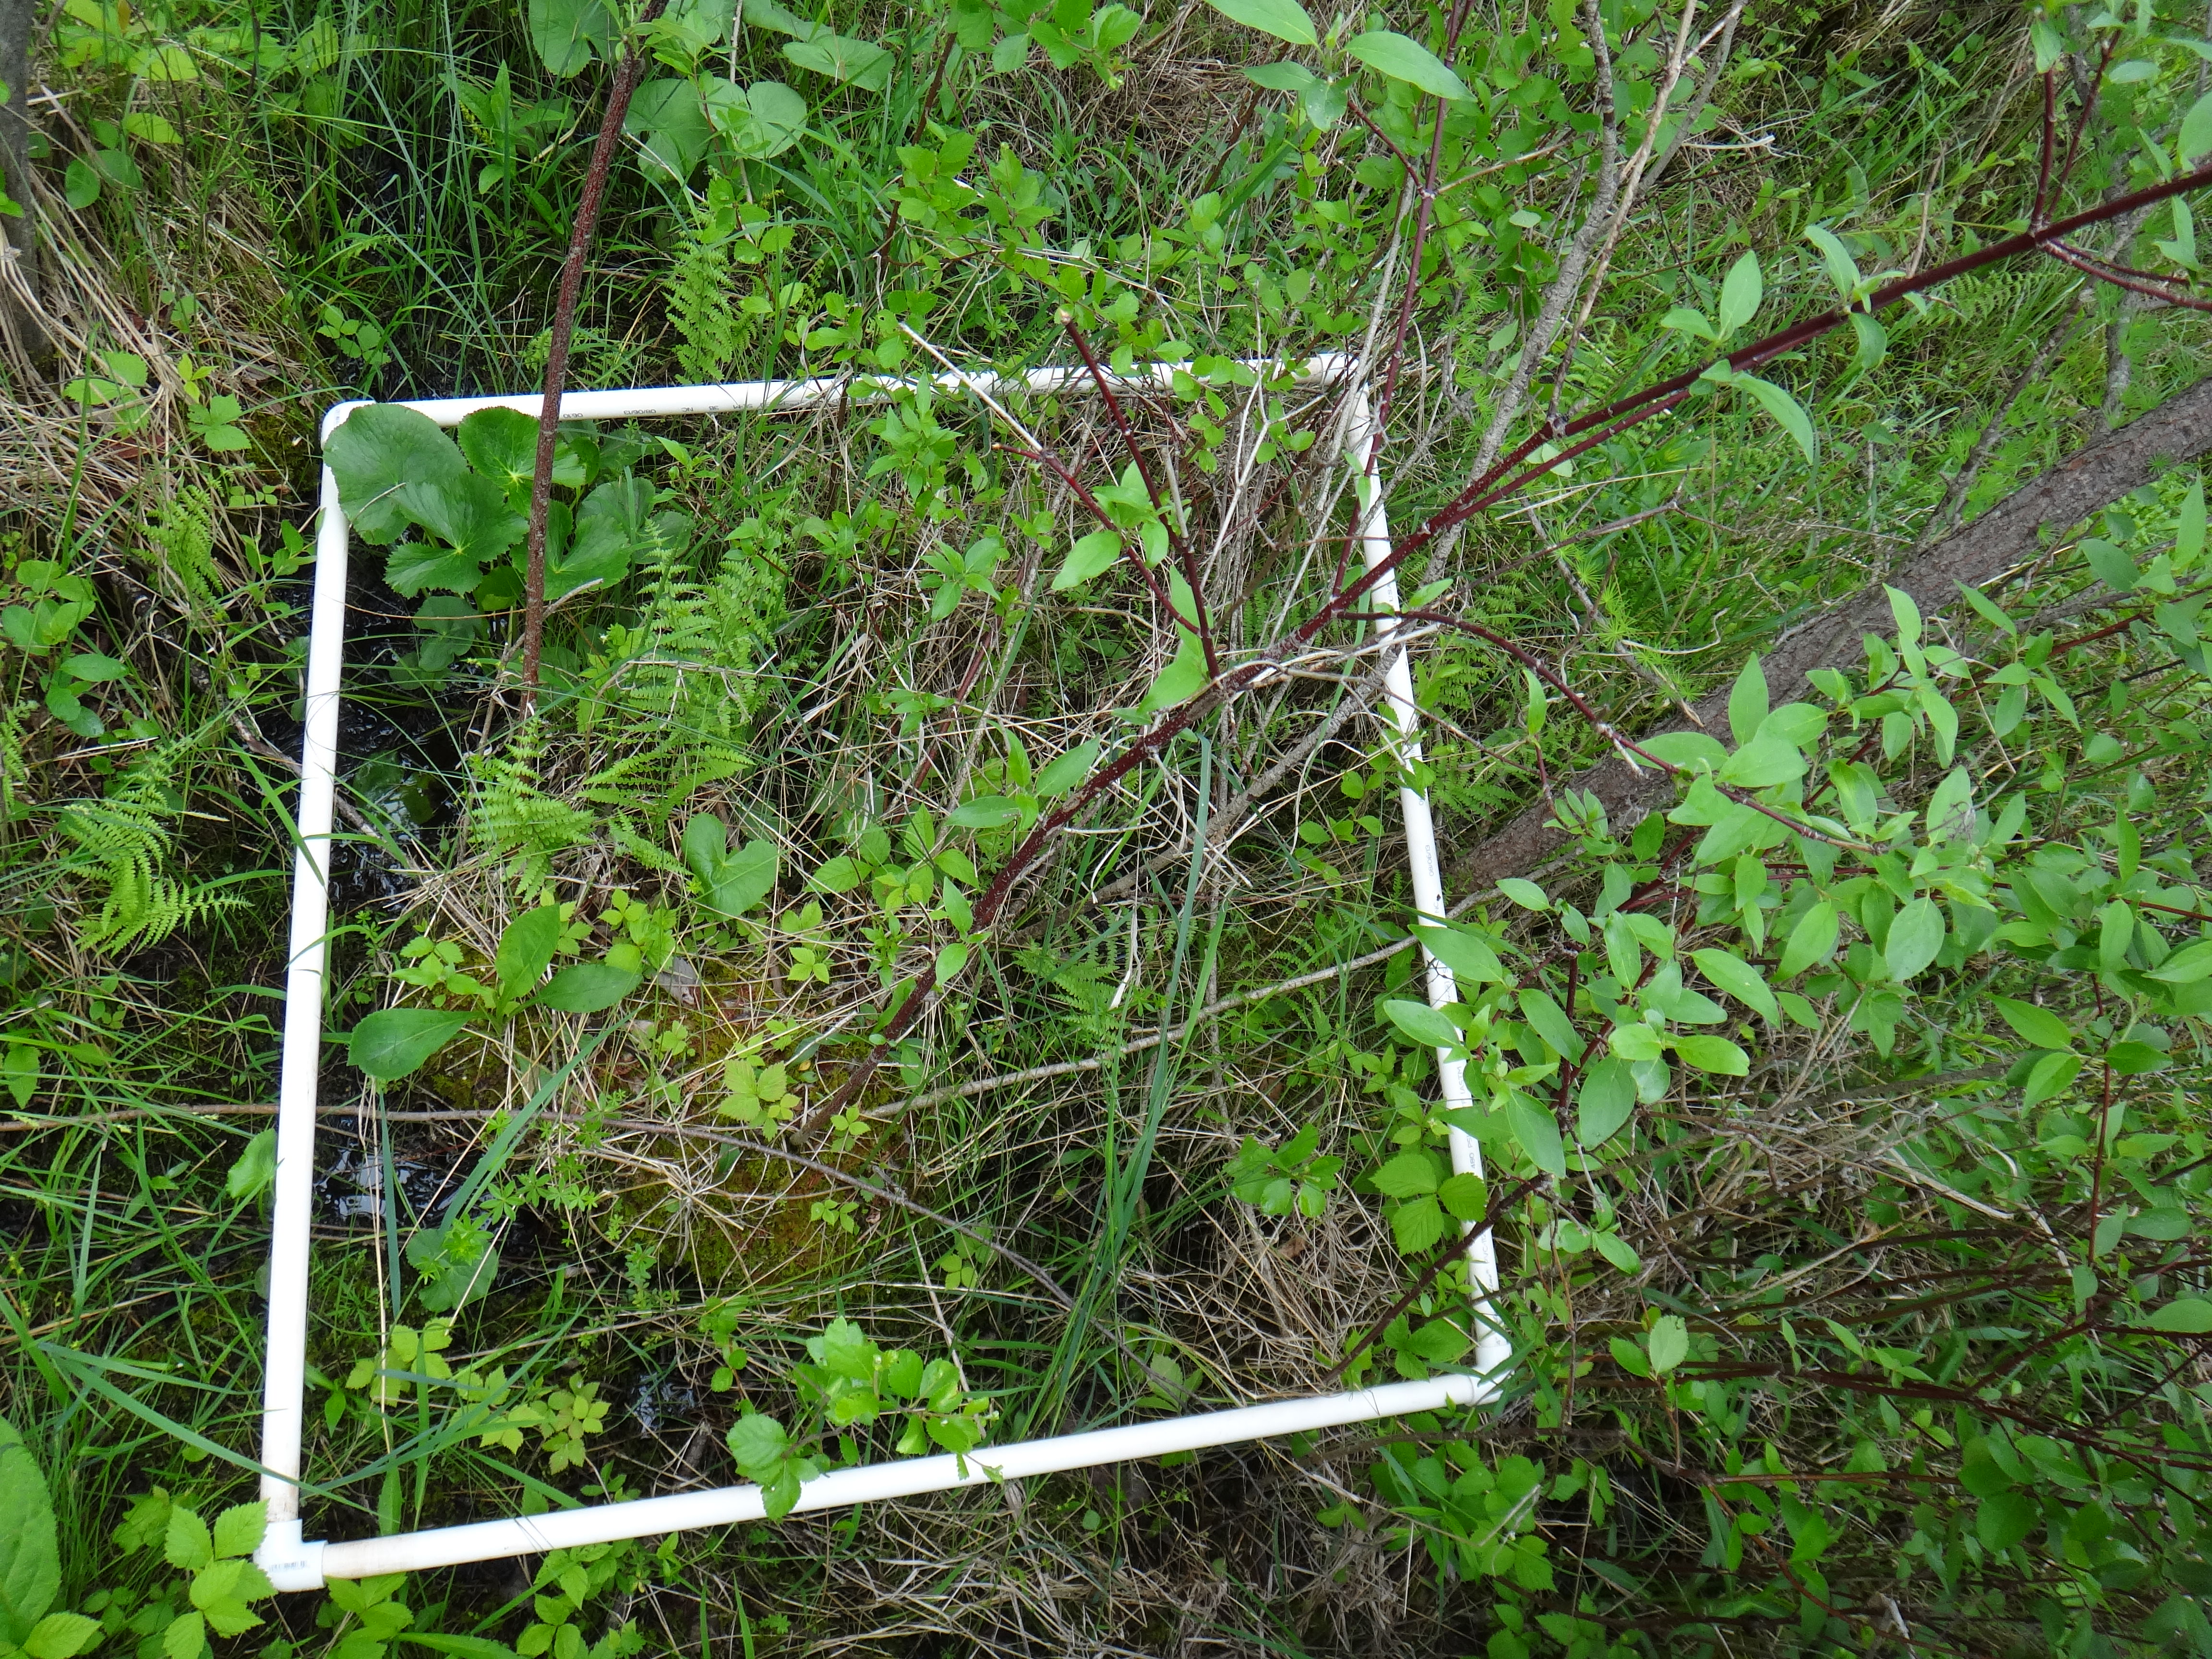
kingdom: Plantae
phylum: Tracheophyta
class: Magnoliopsida
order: Asterales
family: Campanulaceae
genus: Palustricodon
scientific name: Palustricodon aparinoides
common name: Bedstraw bellflower
